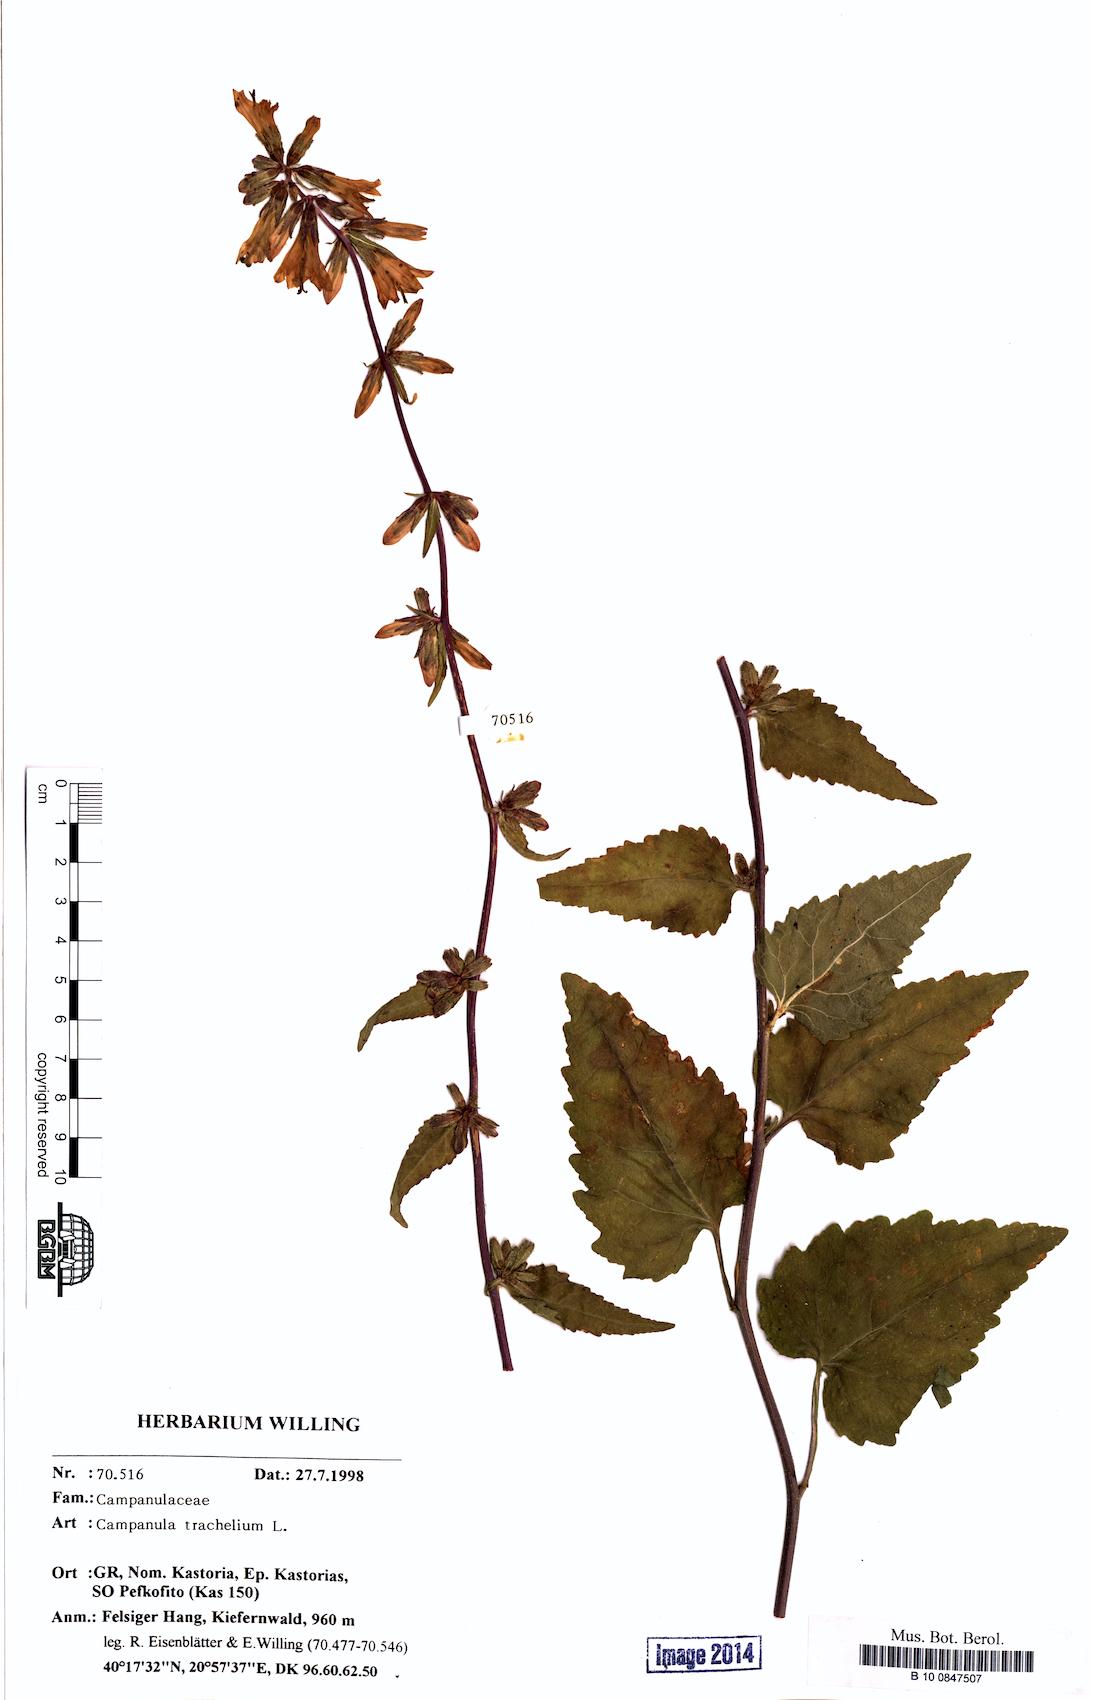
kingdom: Plantae
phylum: Tracheophyta
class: Magnoliopsida
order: Asterales
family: Campanulaceae
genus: Campanula
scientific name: Campanula trachelium
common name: Nettle-leaved bellflower
